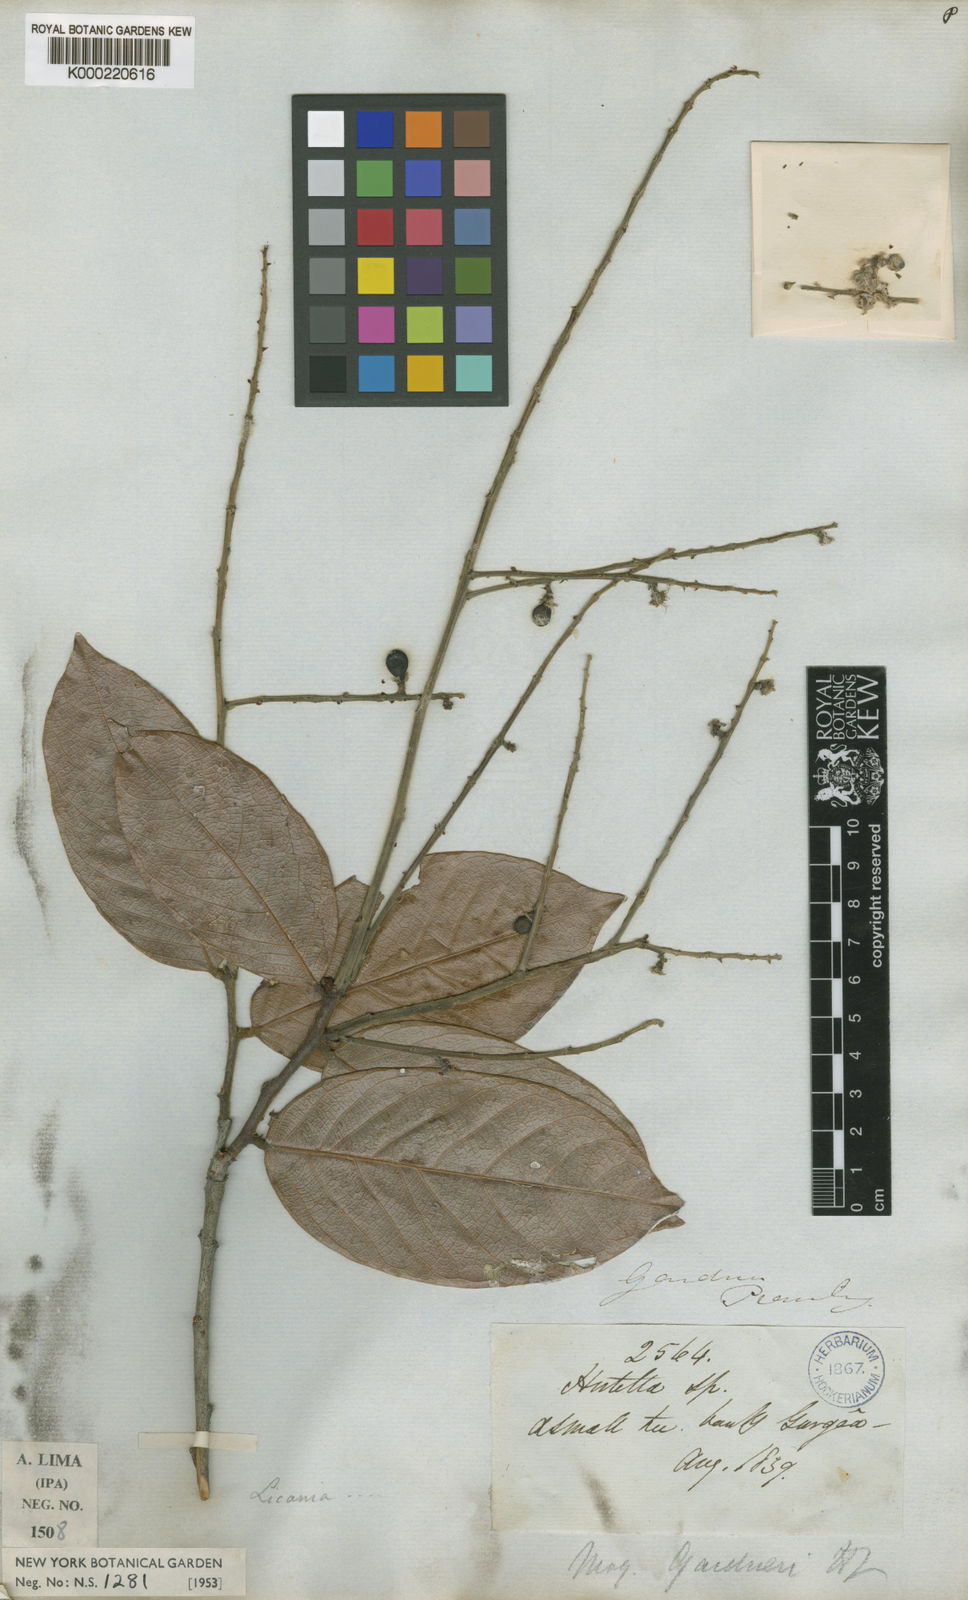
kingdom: Plantae
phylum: Tracheophyta
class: Magnoliopsida
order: Malpighiales
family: Chrysobalanaceae
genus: Leptobalanus
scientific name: Leptobalanus gardneri
